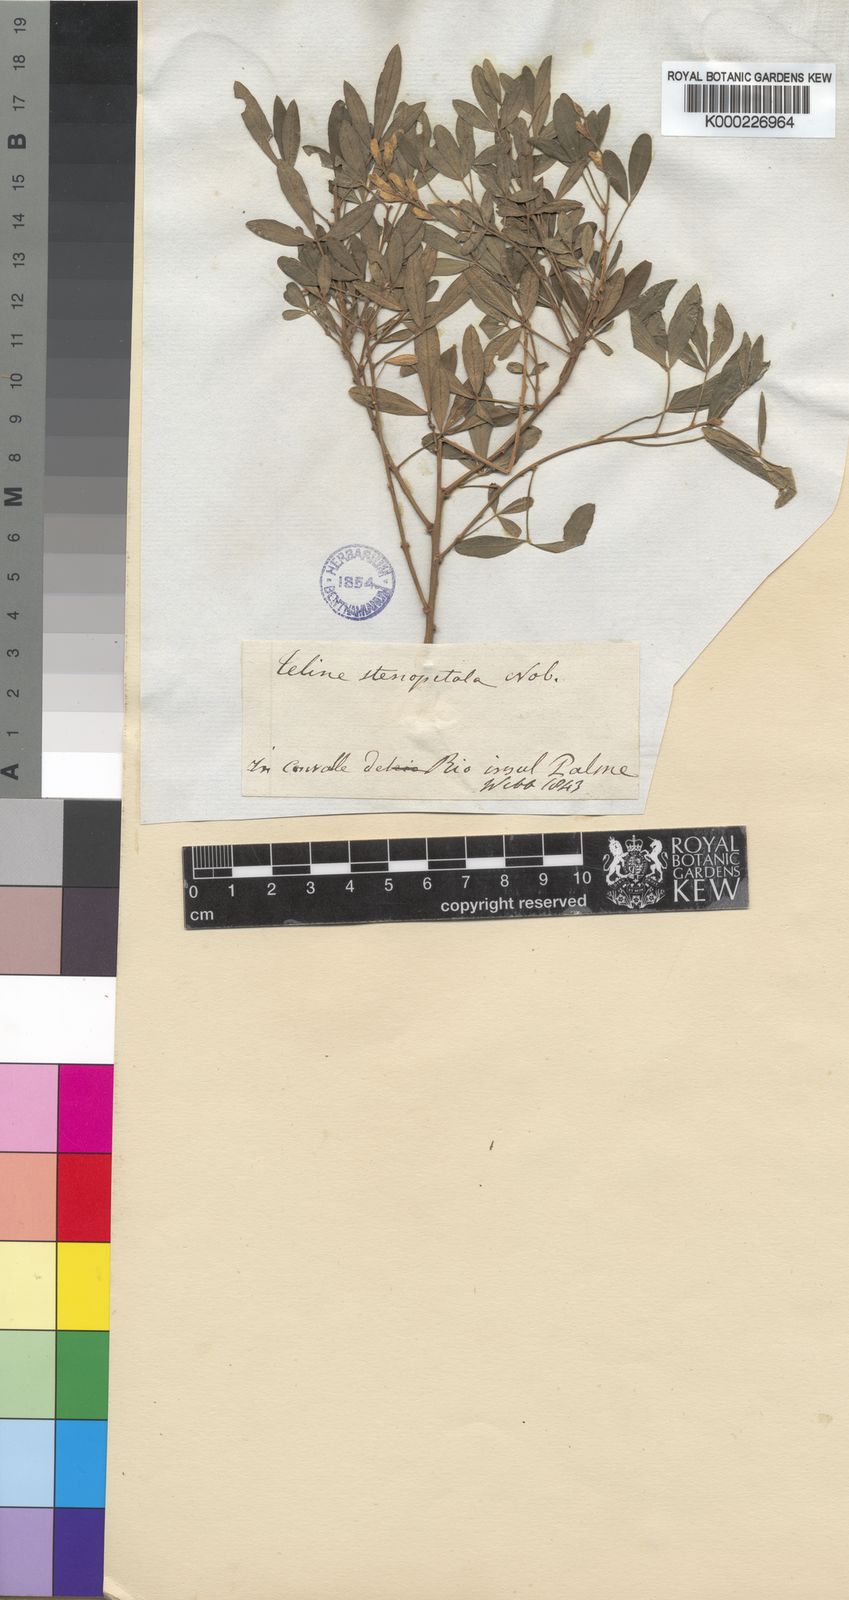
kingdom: Plantae
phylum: Tracheophyta
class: Magnoliopsida
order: Fabales
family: Fabaceae
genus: Genista
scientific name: Genista stenopetala
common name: Leafy broom
